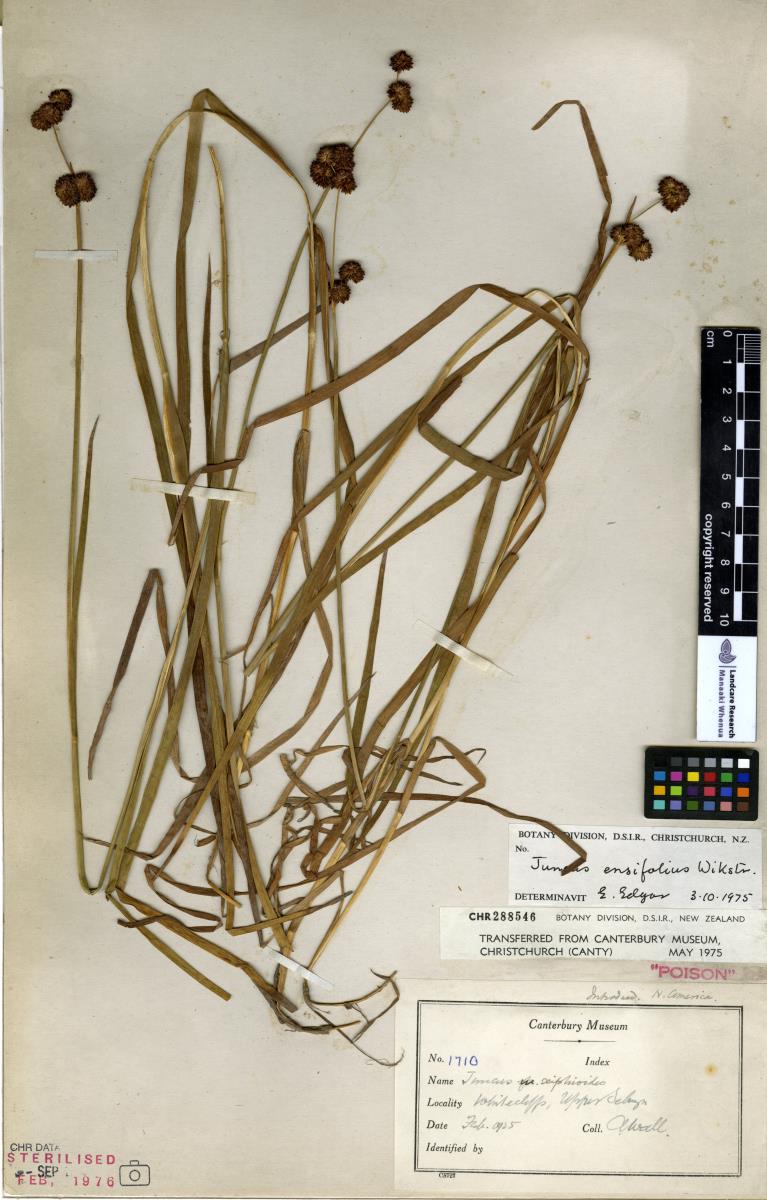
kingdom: Plantae
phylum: Tracheophyta
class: Liliopsida
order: Poales
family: Juncaceae
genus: Juncus
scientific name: Juncus ensifolius
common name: Sword-leaved rush
